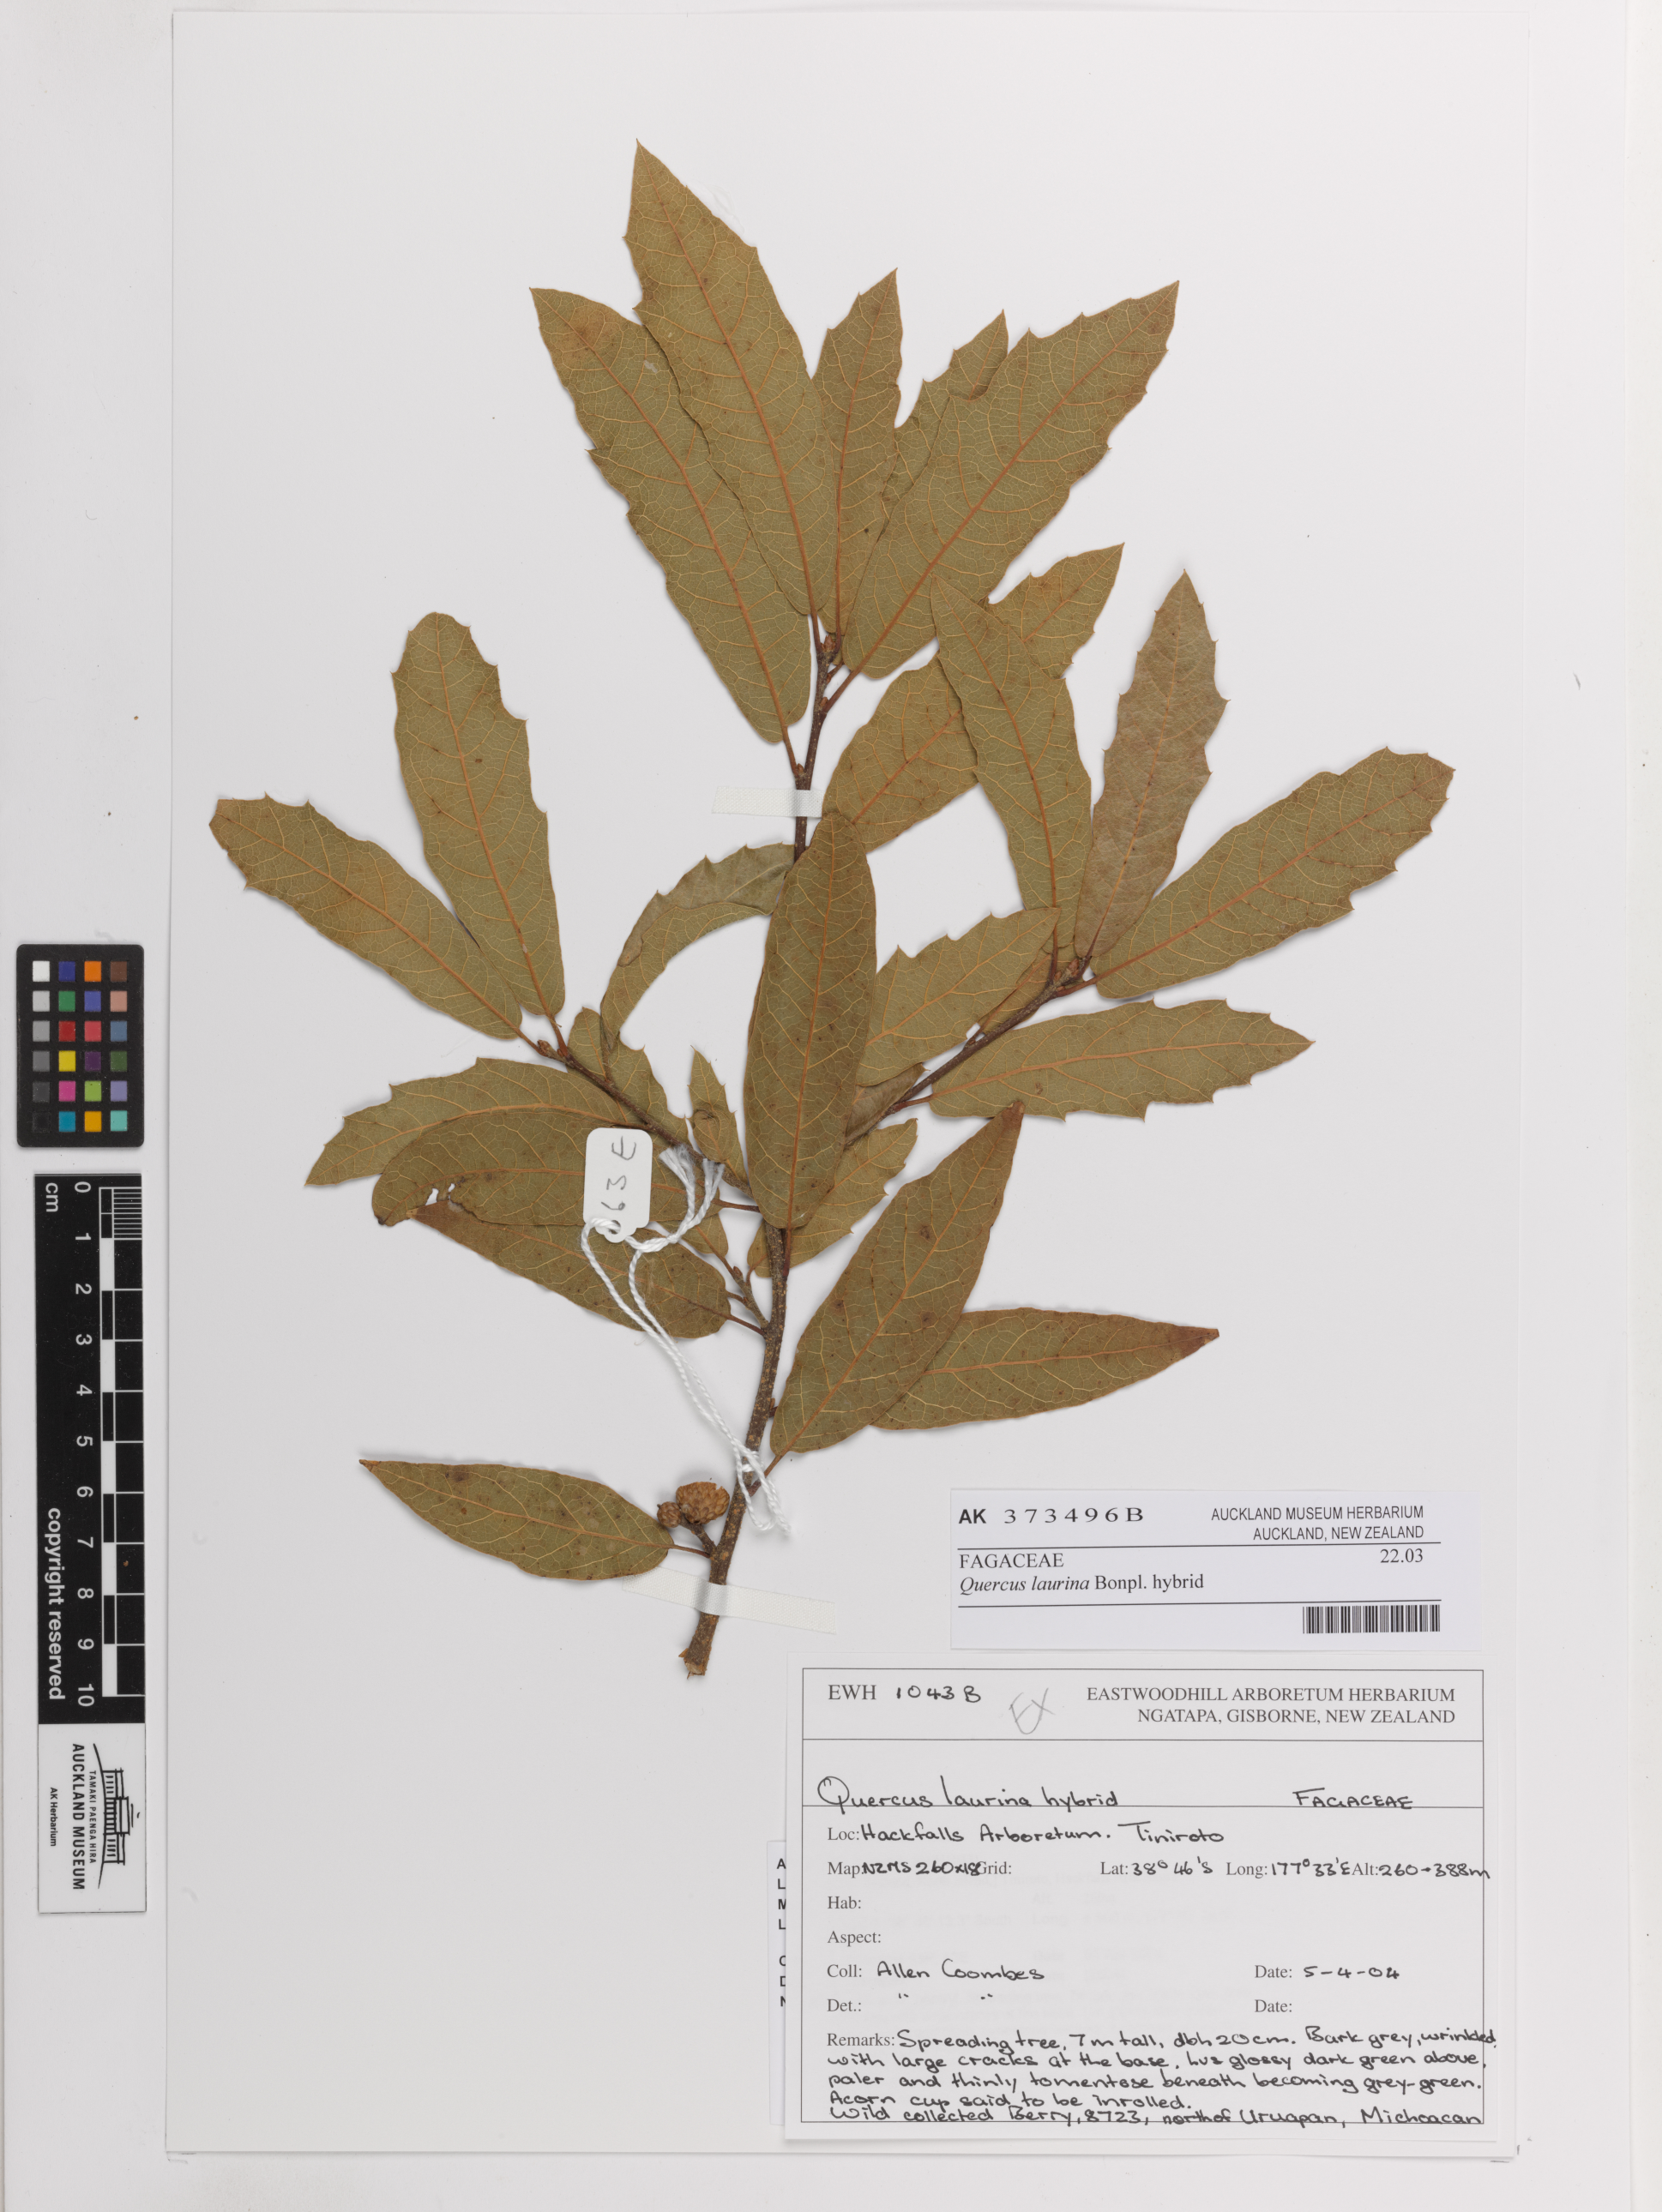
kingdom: Plantae
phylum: Tracheophyta
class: Magnoliopsida
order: Fagales
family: Fagaceae
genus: Quercus
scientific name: Quercus laurina
